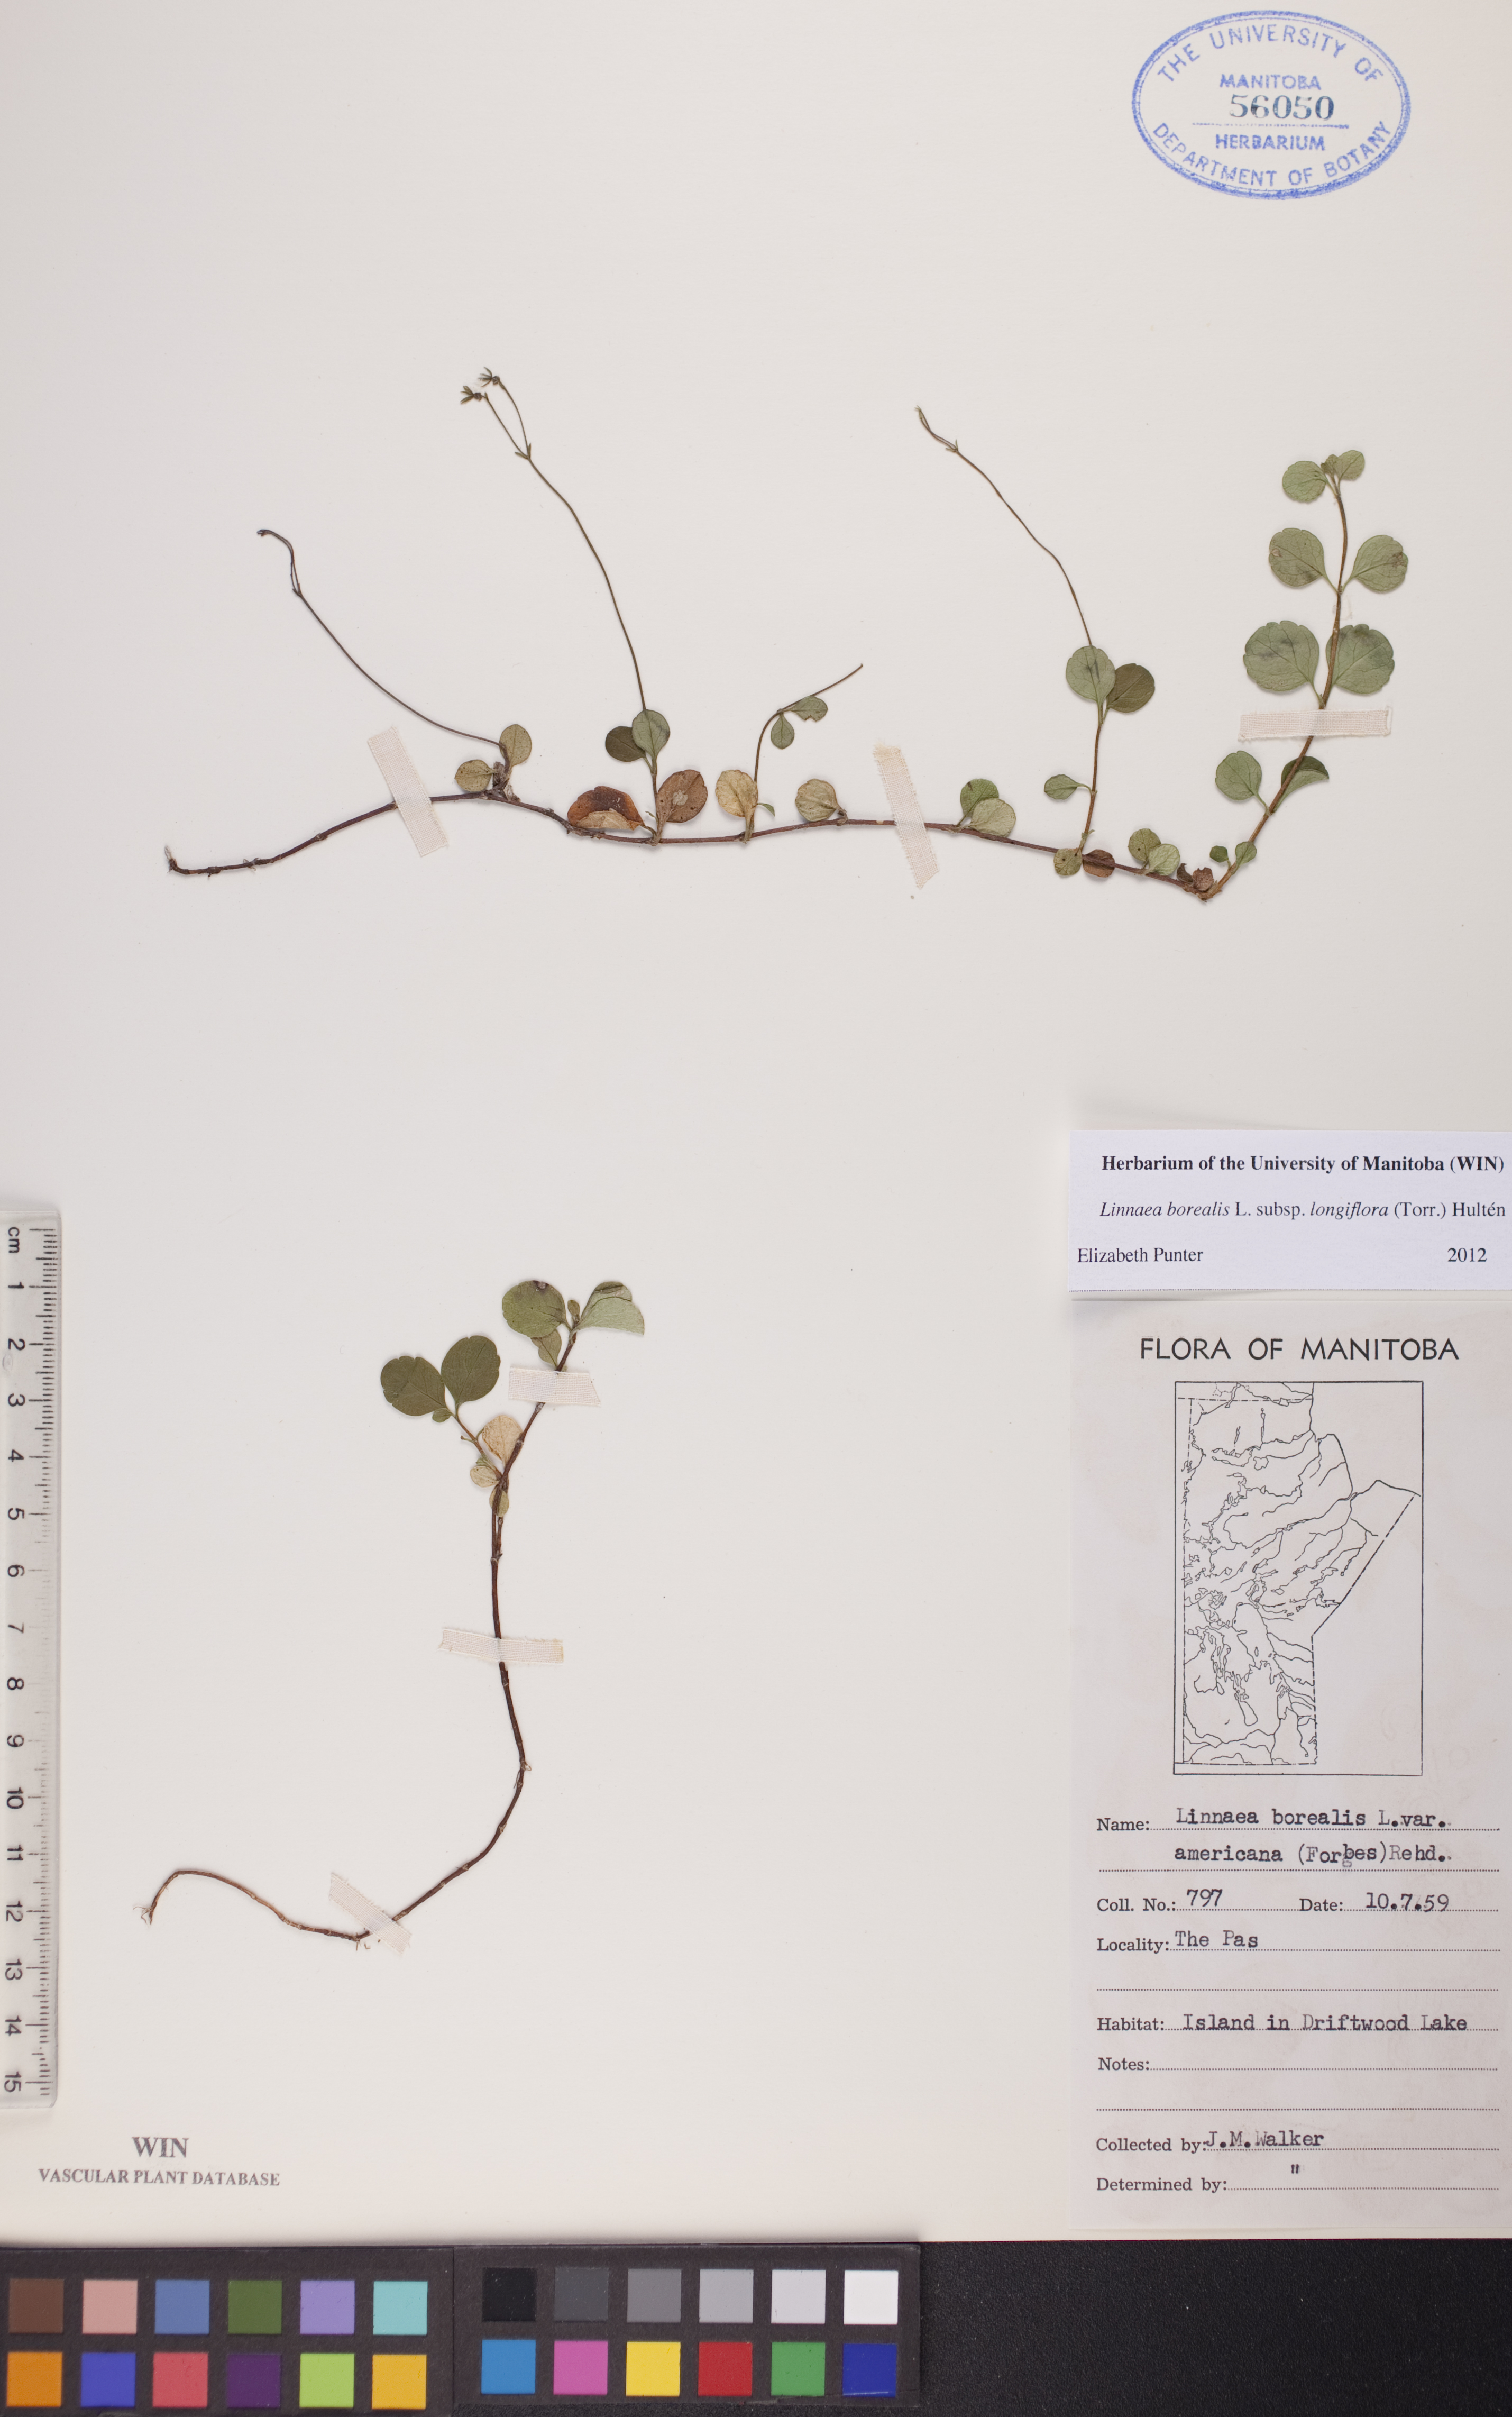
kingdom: Plantae
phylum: Tracheophyta
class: Magnoliopsida
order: Dipsacales
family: Caprifoliaceae
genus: Linnaea
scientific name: Linnaea borealis
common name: Twinflower
